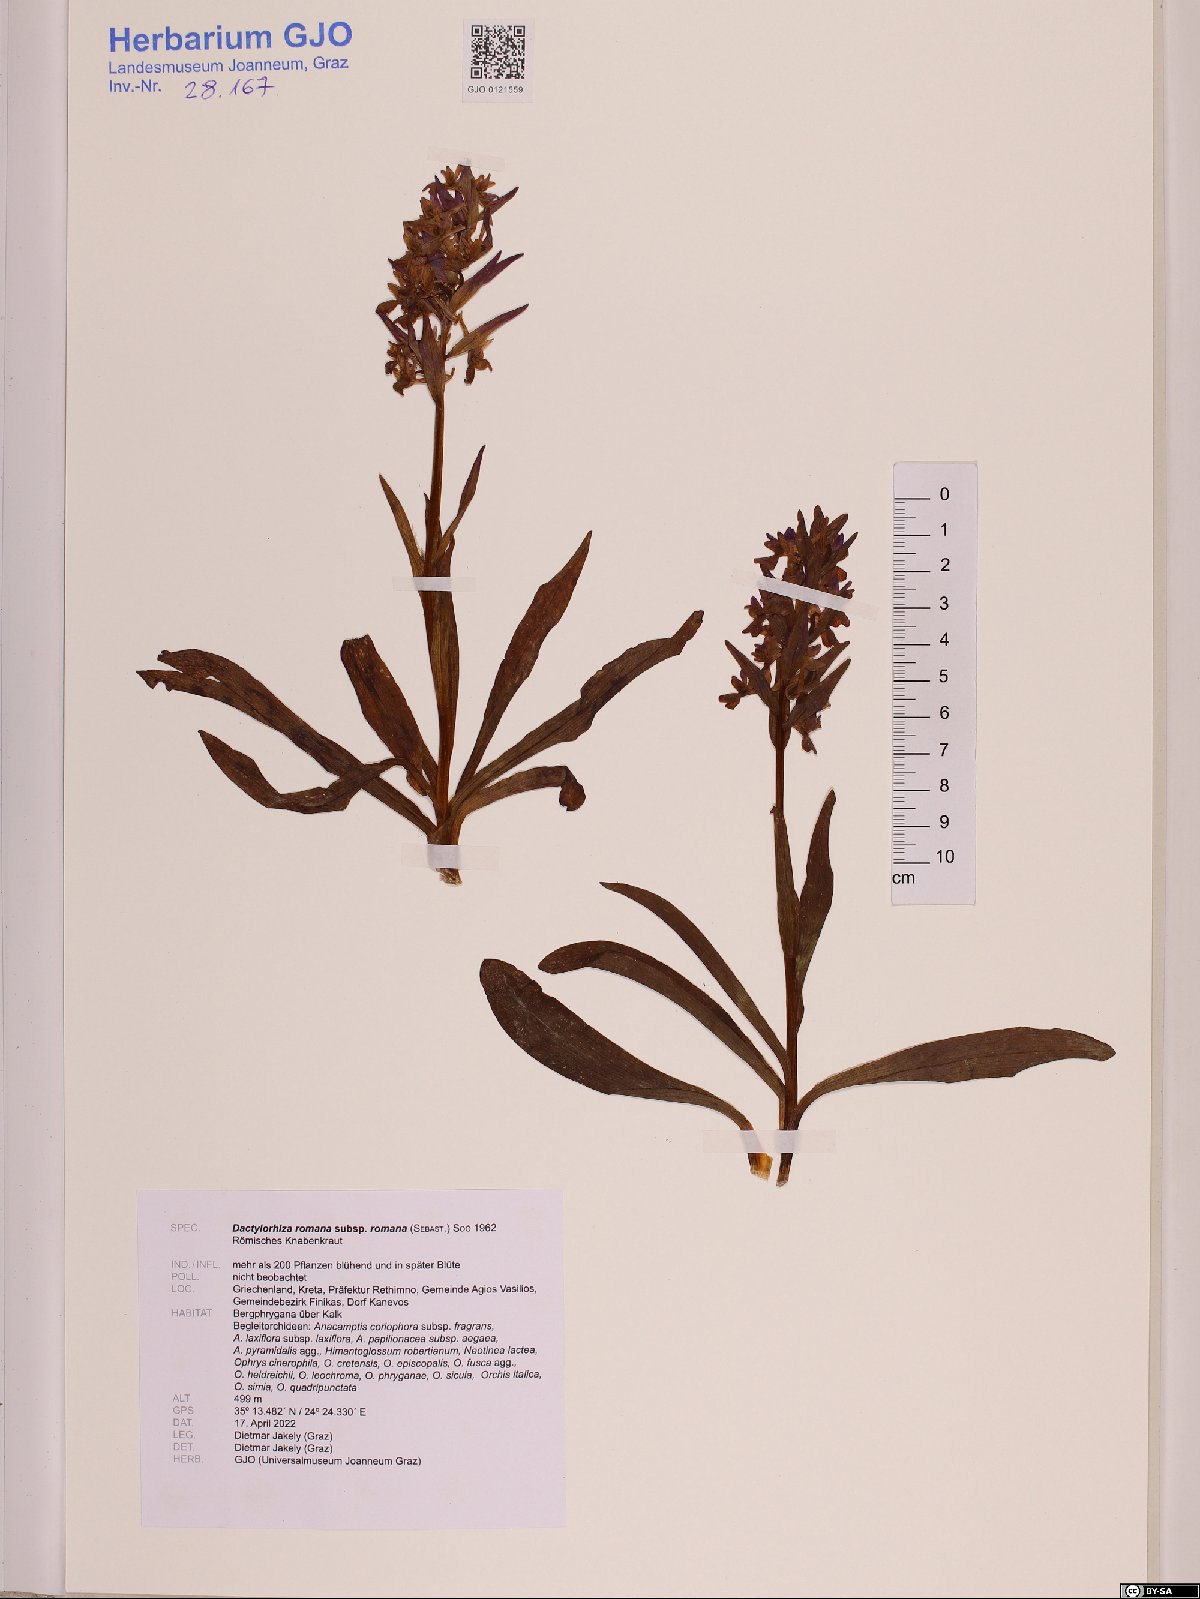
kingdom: Plantae
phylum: Tracheophyta
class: Liliopsida
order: Asparagales
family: Orchidaceae
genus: Dactylorhiza
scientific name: Dactylorhiza romana
